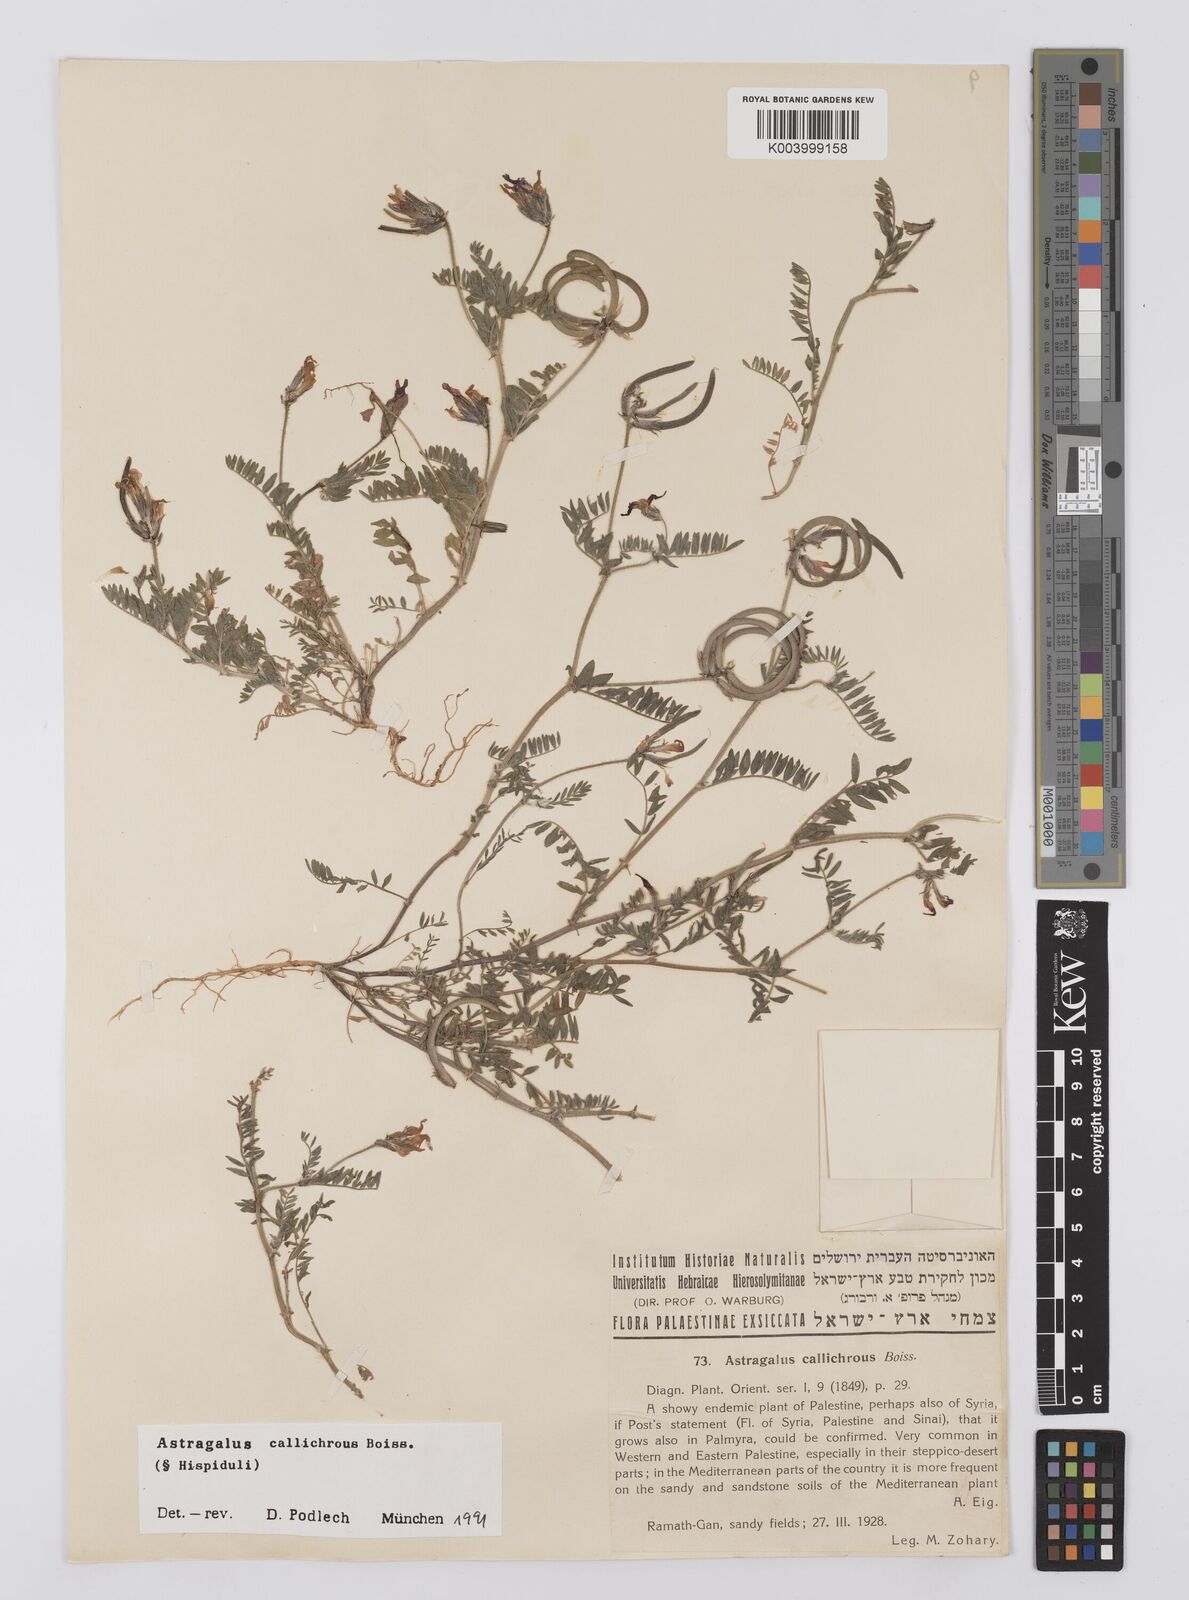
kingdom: Plantae
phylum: Tracheophyta
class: Magnoliopsida
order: Fabales
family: Fabaceae
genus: Astragalus
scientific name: Astragalus callichrous
